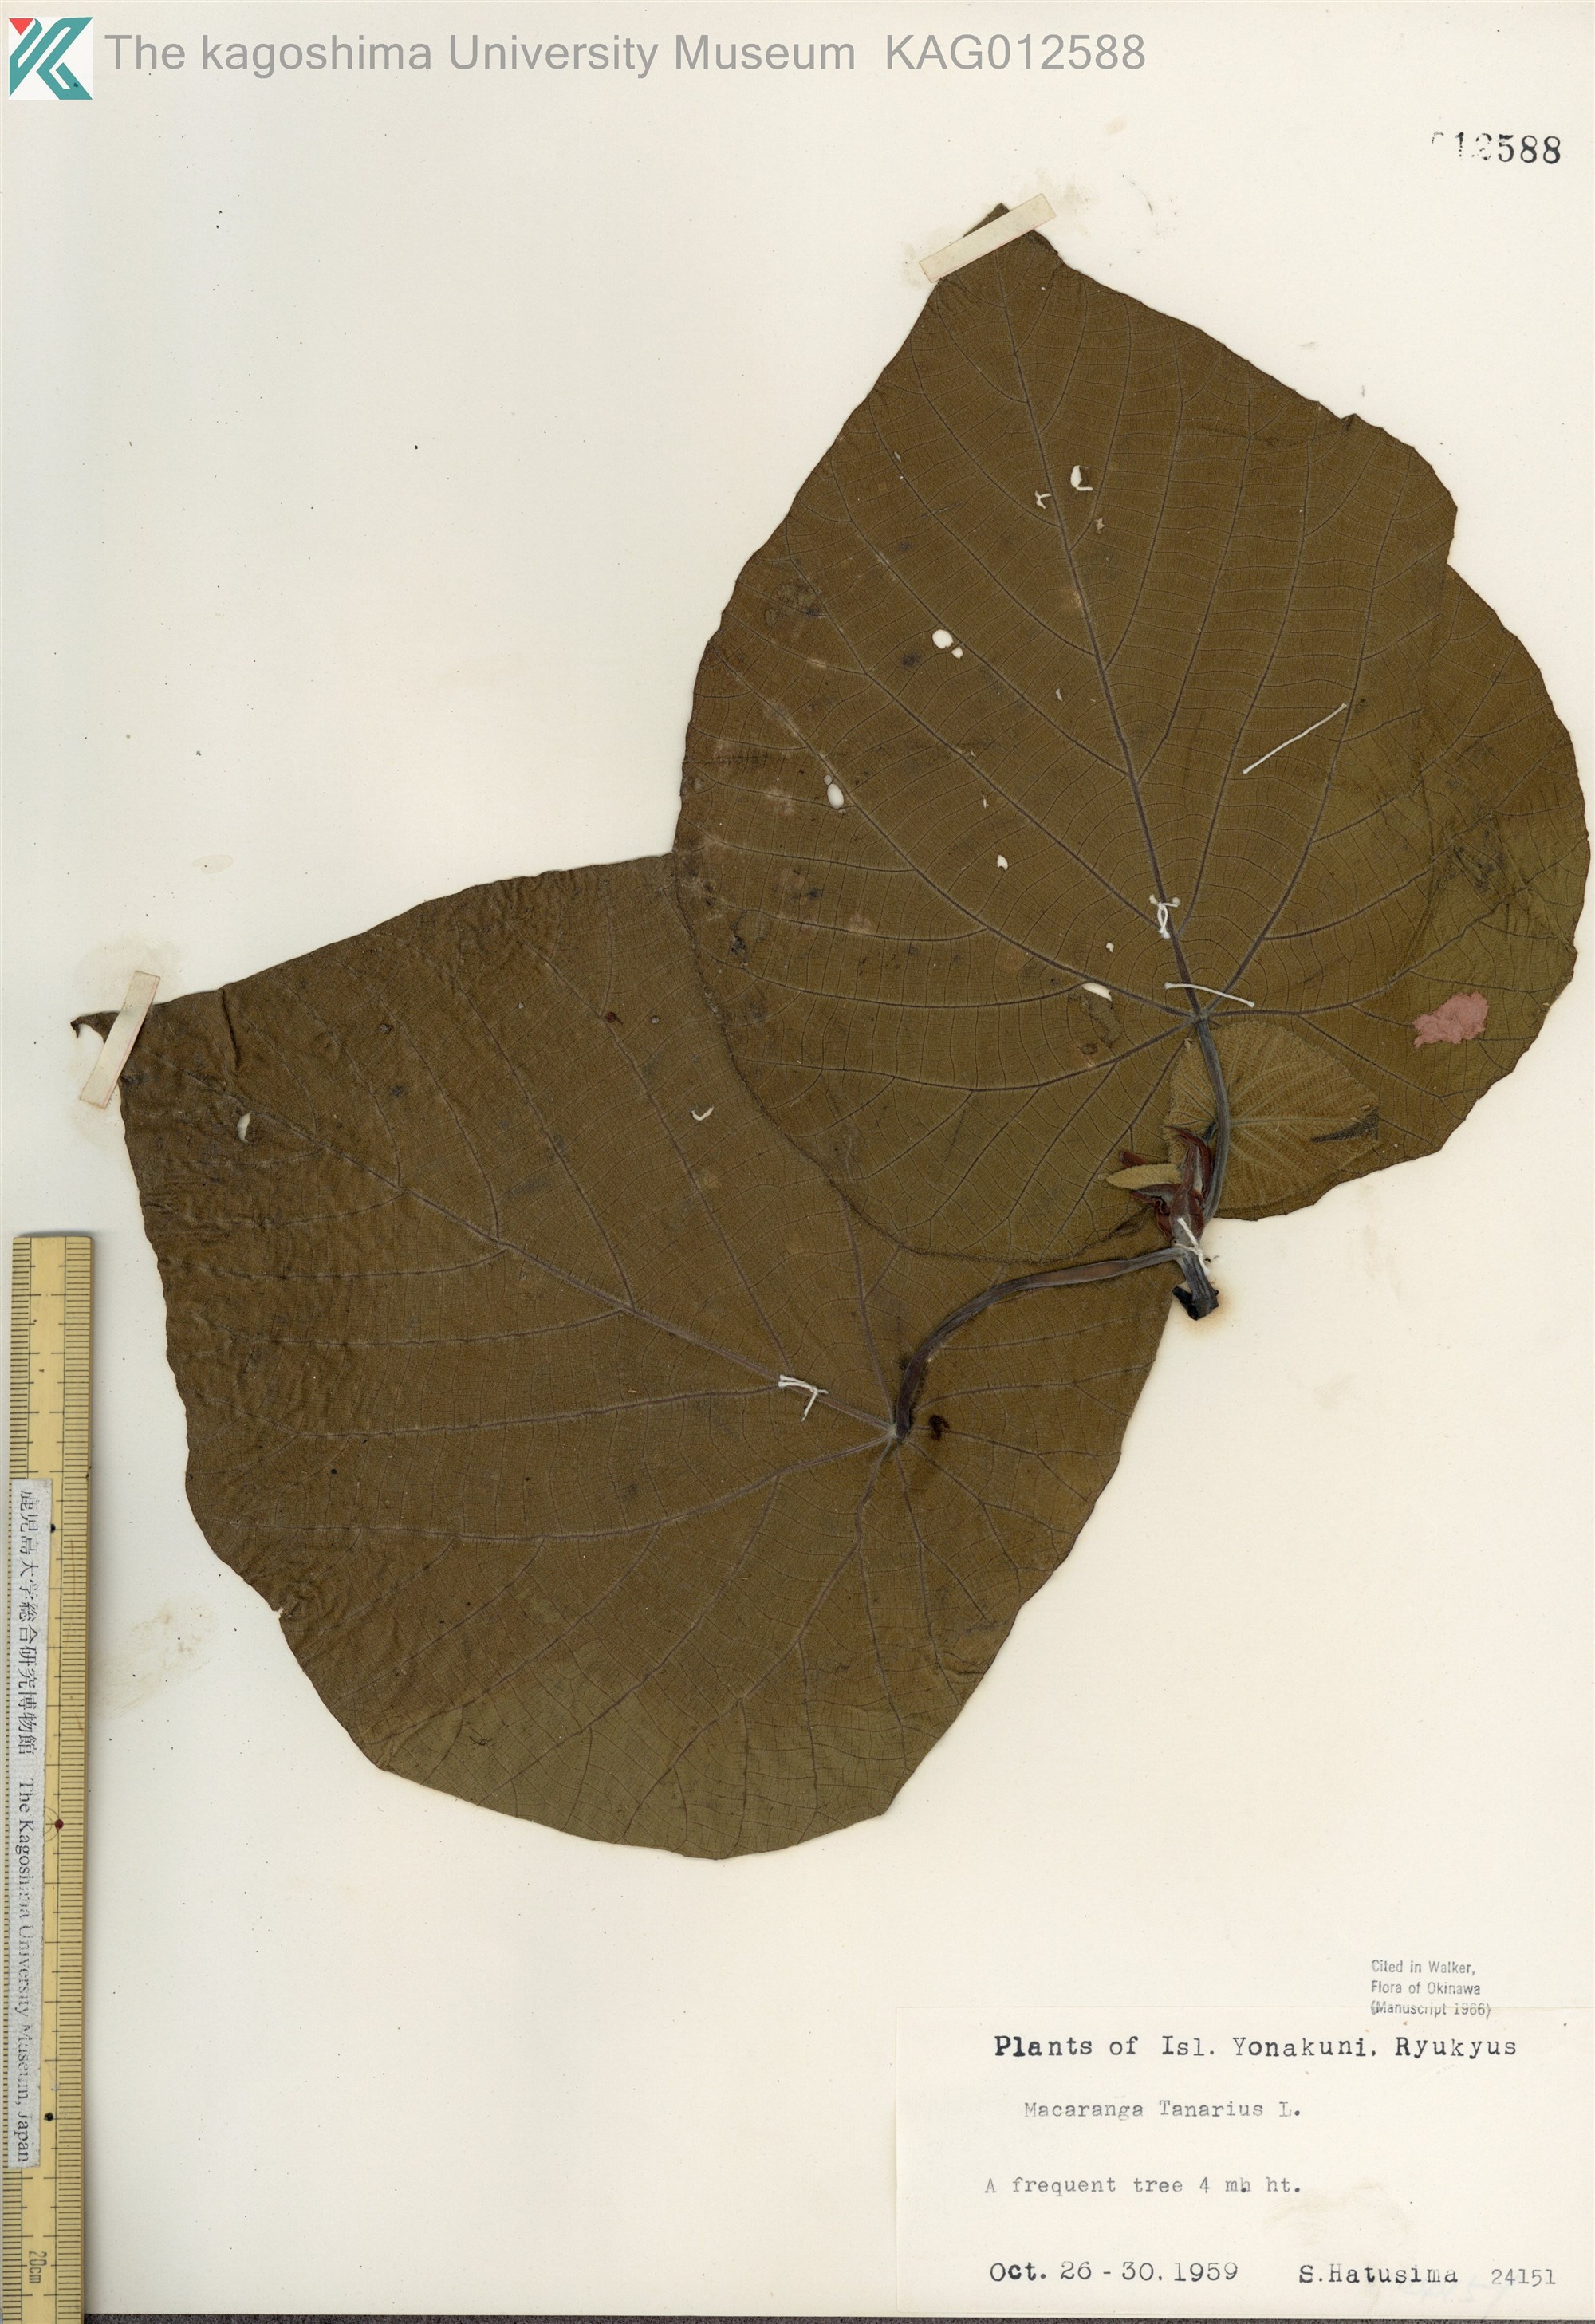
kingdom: Plantae
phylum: Tracheophyta
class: Magnoliopsida
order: Malpighiales
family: Euphorbiaceae
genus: Macaranga
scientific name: Macaranga tanarius
